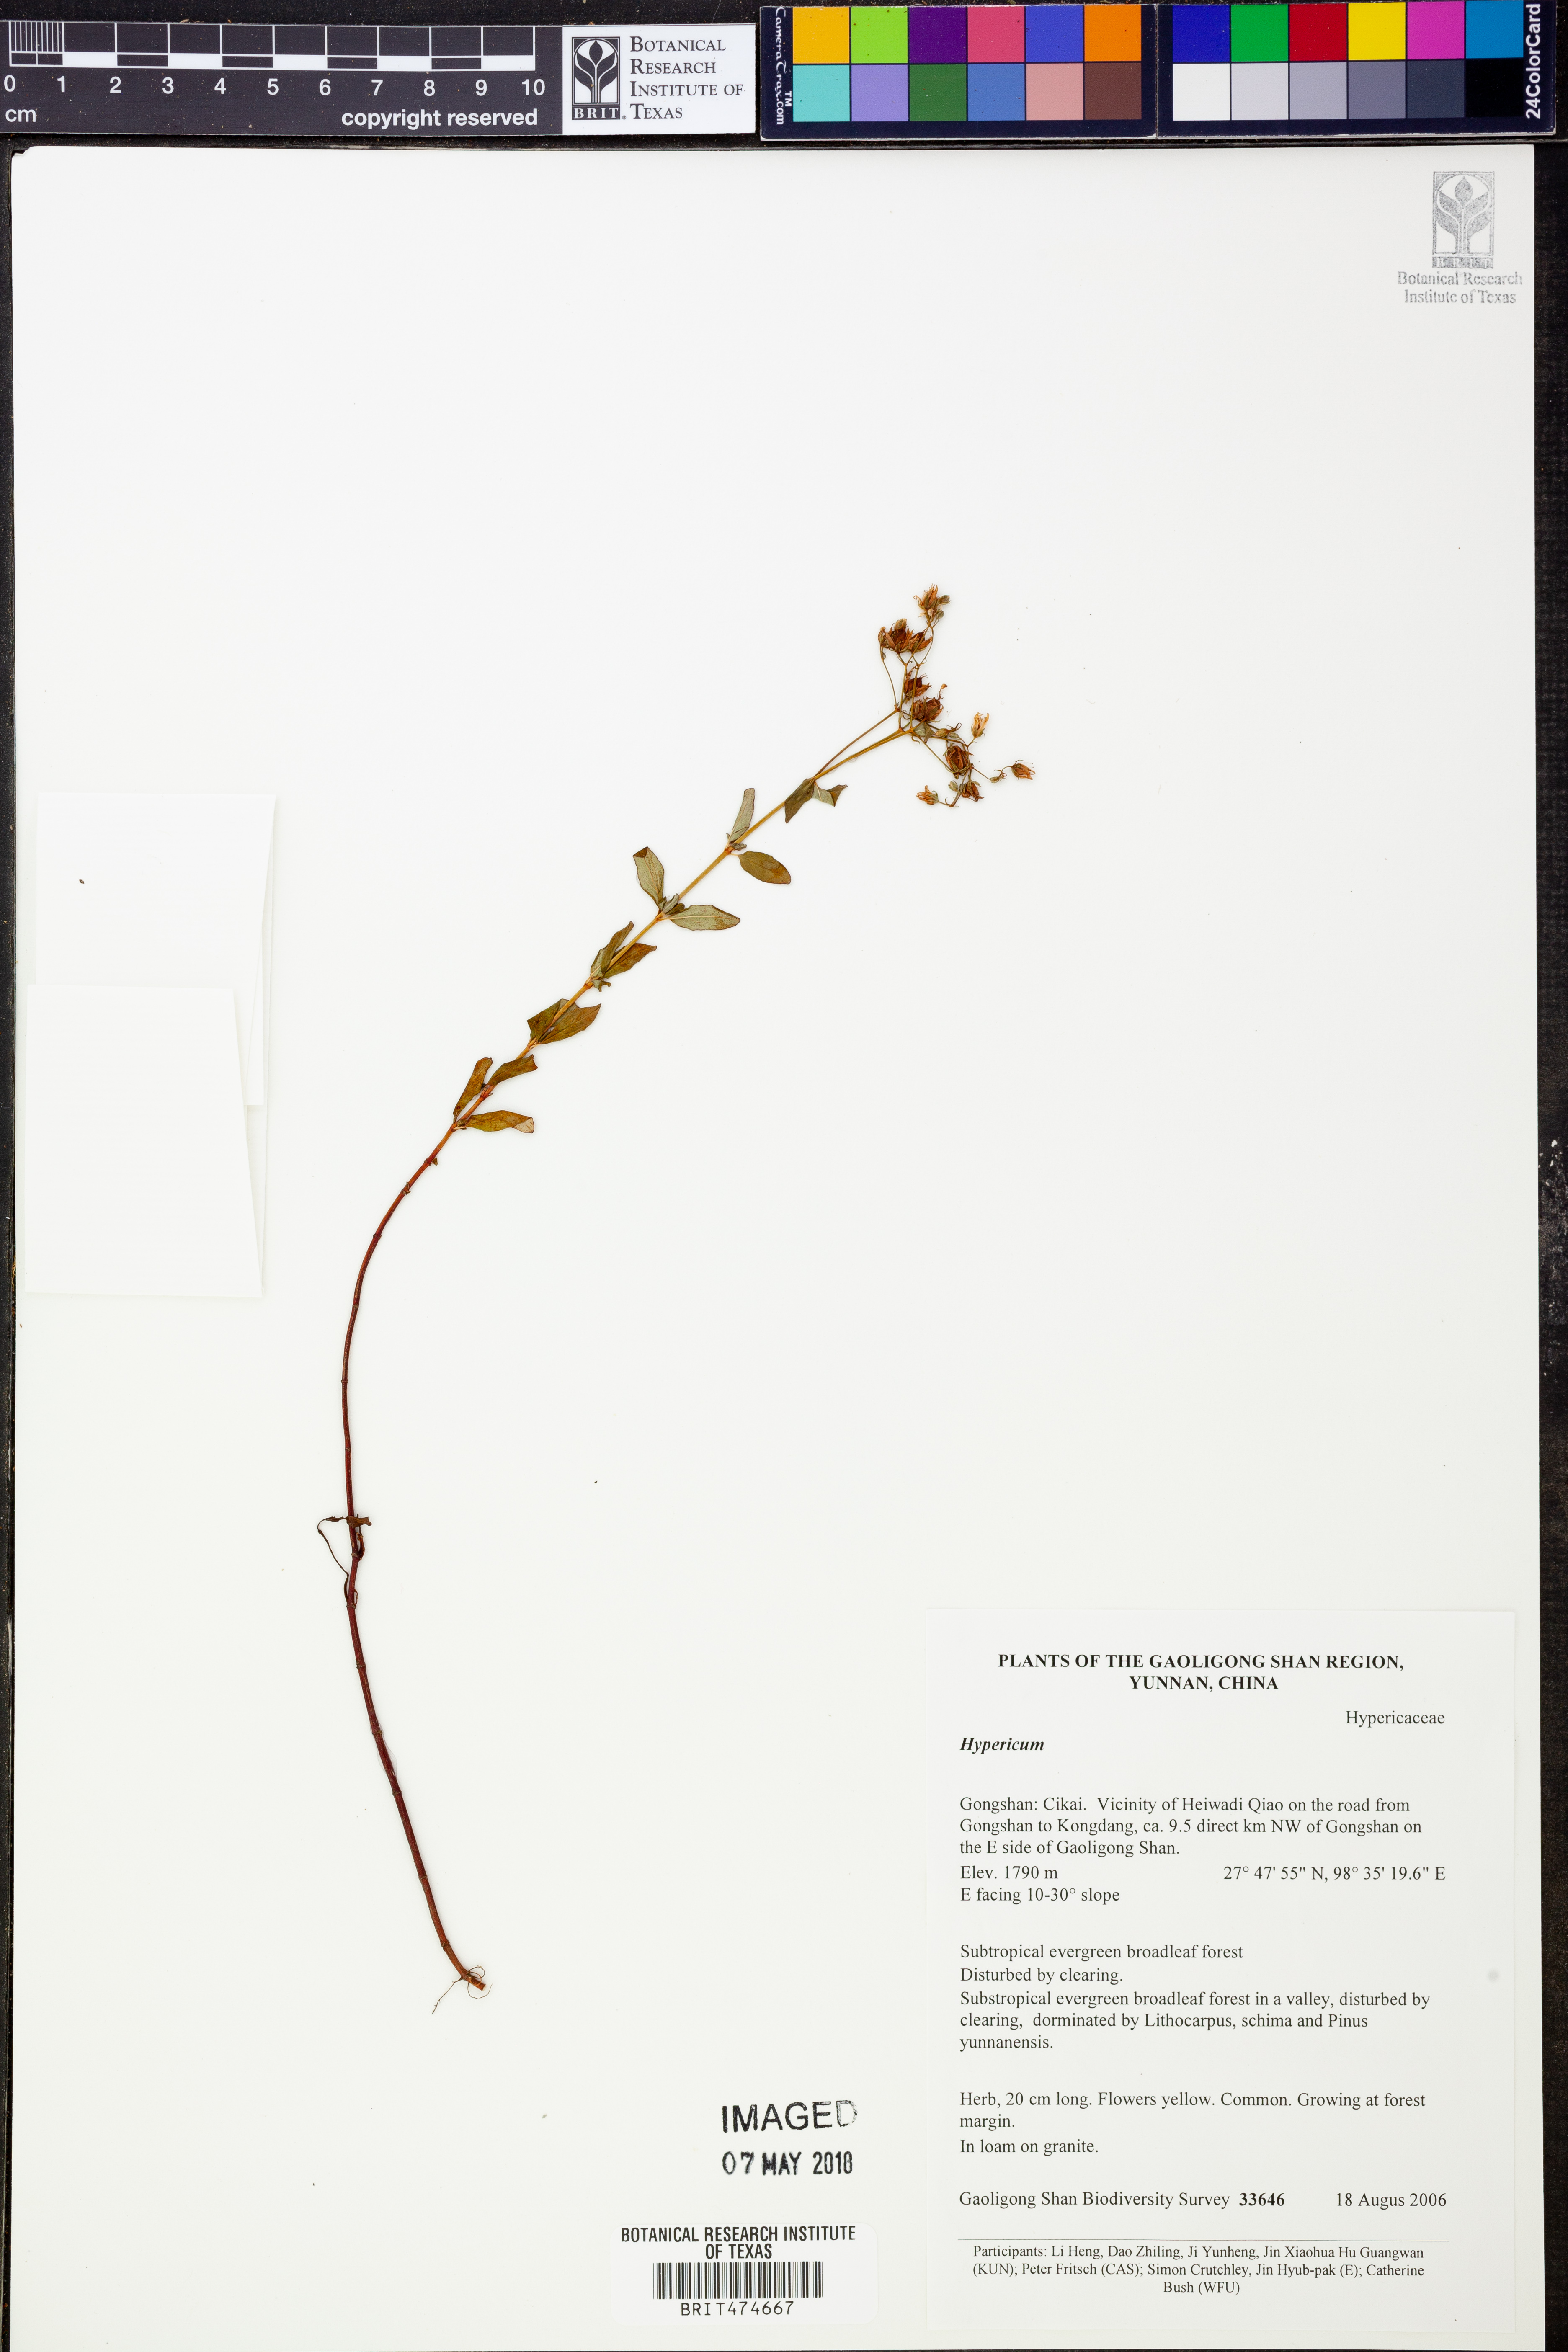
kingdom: Plantae
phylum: Tracheophyta
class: Magnoliopsida
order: Malpighiales
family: Hypericaceae
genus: Hypericum
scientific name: Hypericum
